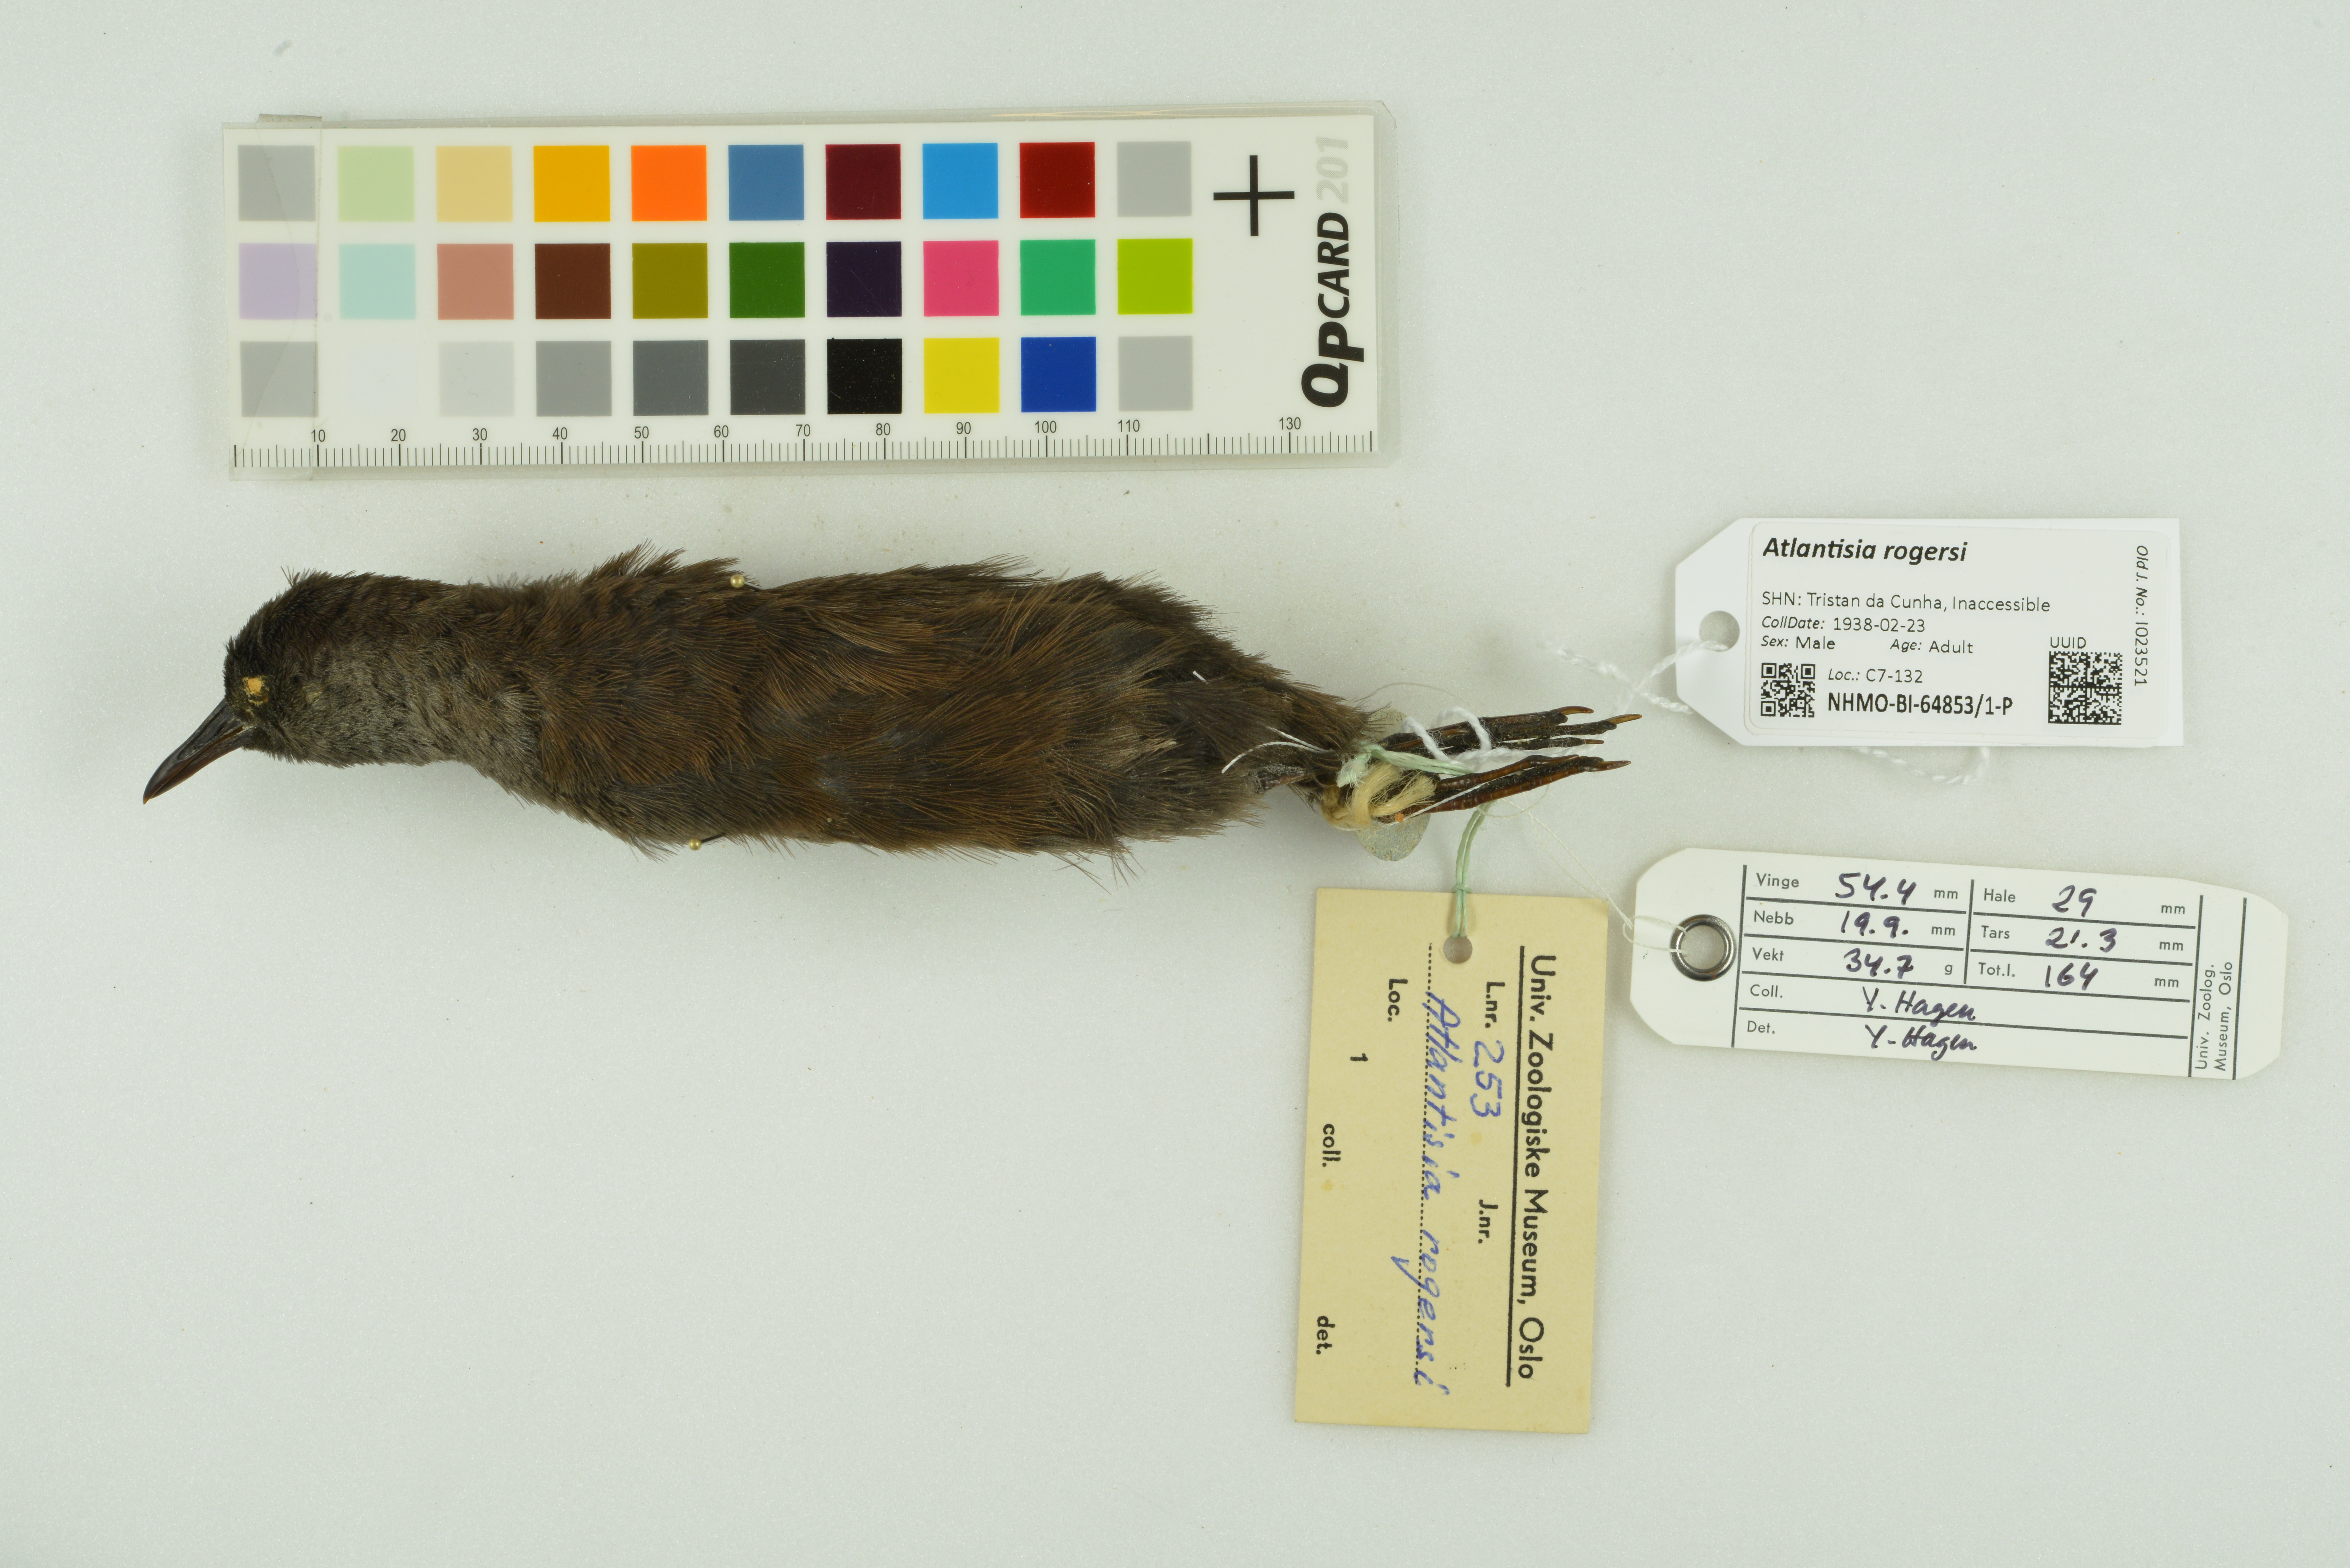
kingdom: Animalia
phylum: Chordata
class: Aves
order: Gruiformes
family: Rallidae
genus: Atlantisia
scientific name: Atlantisia rogersi
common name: Inaccessible island rail
